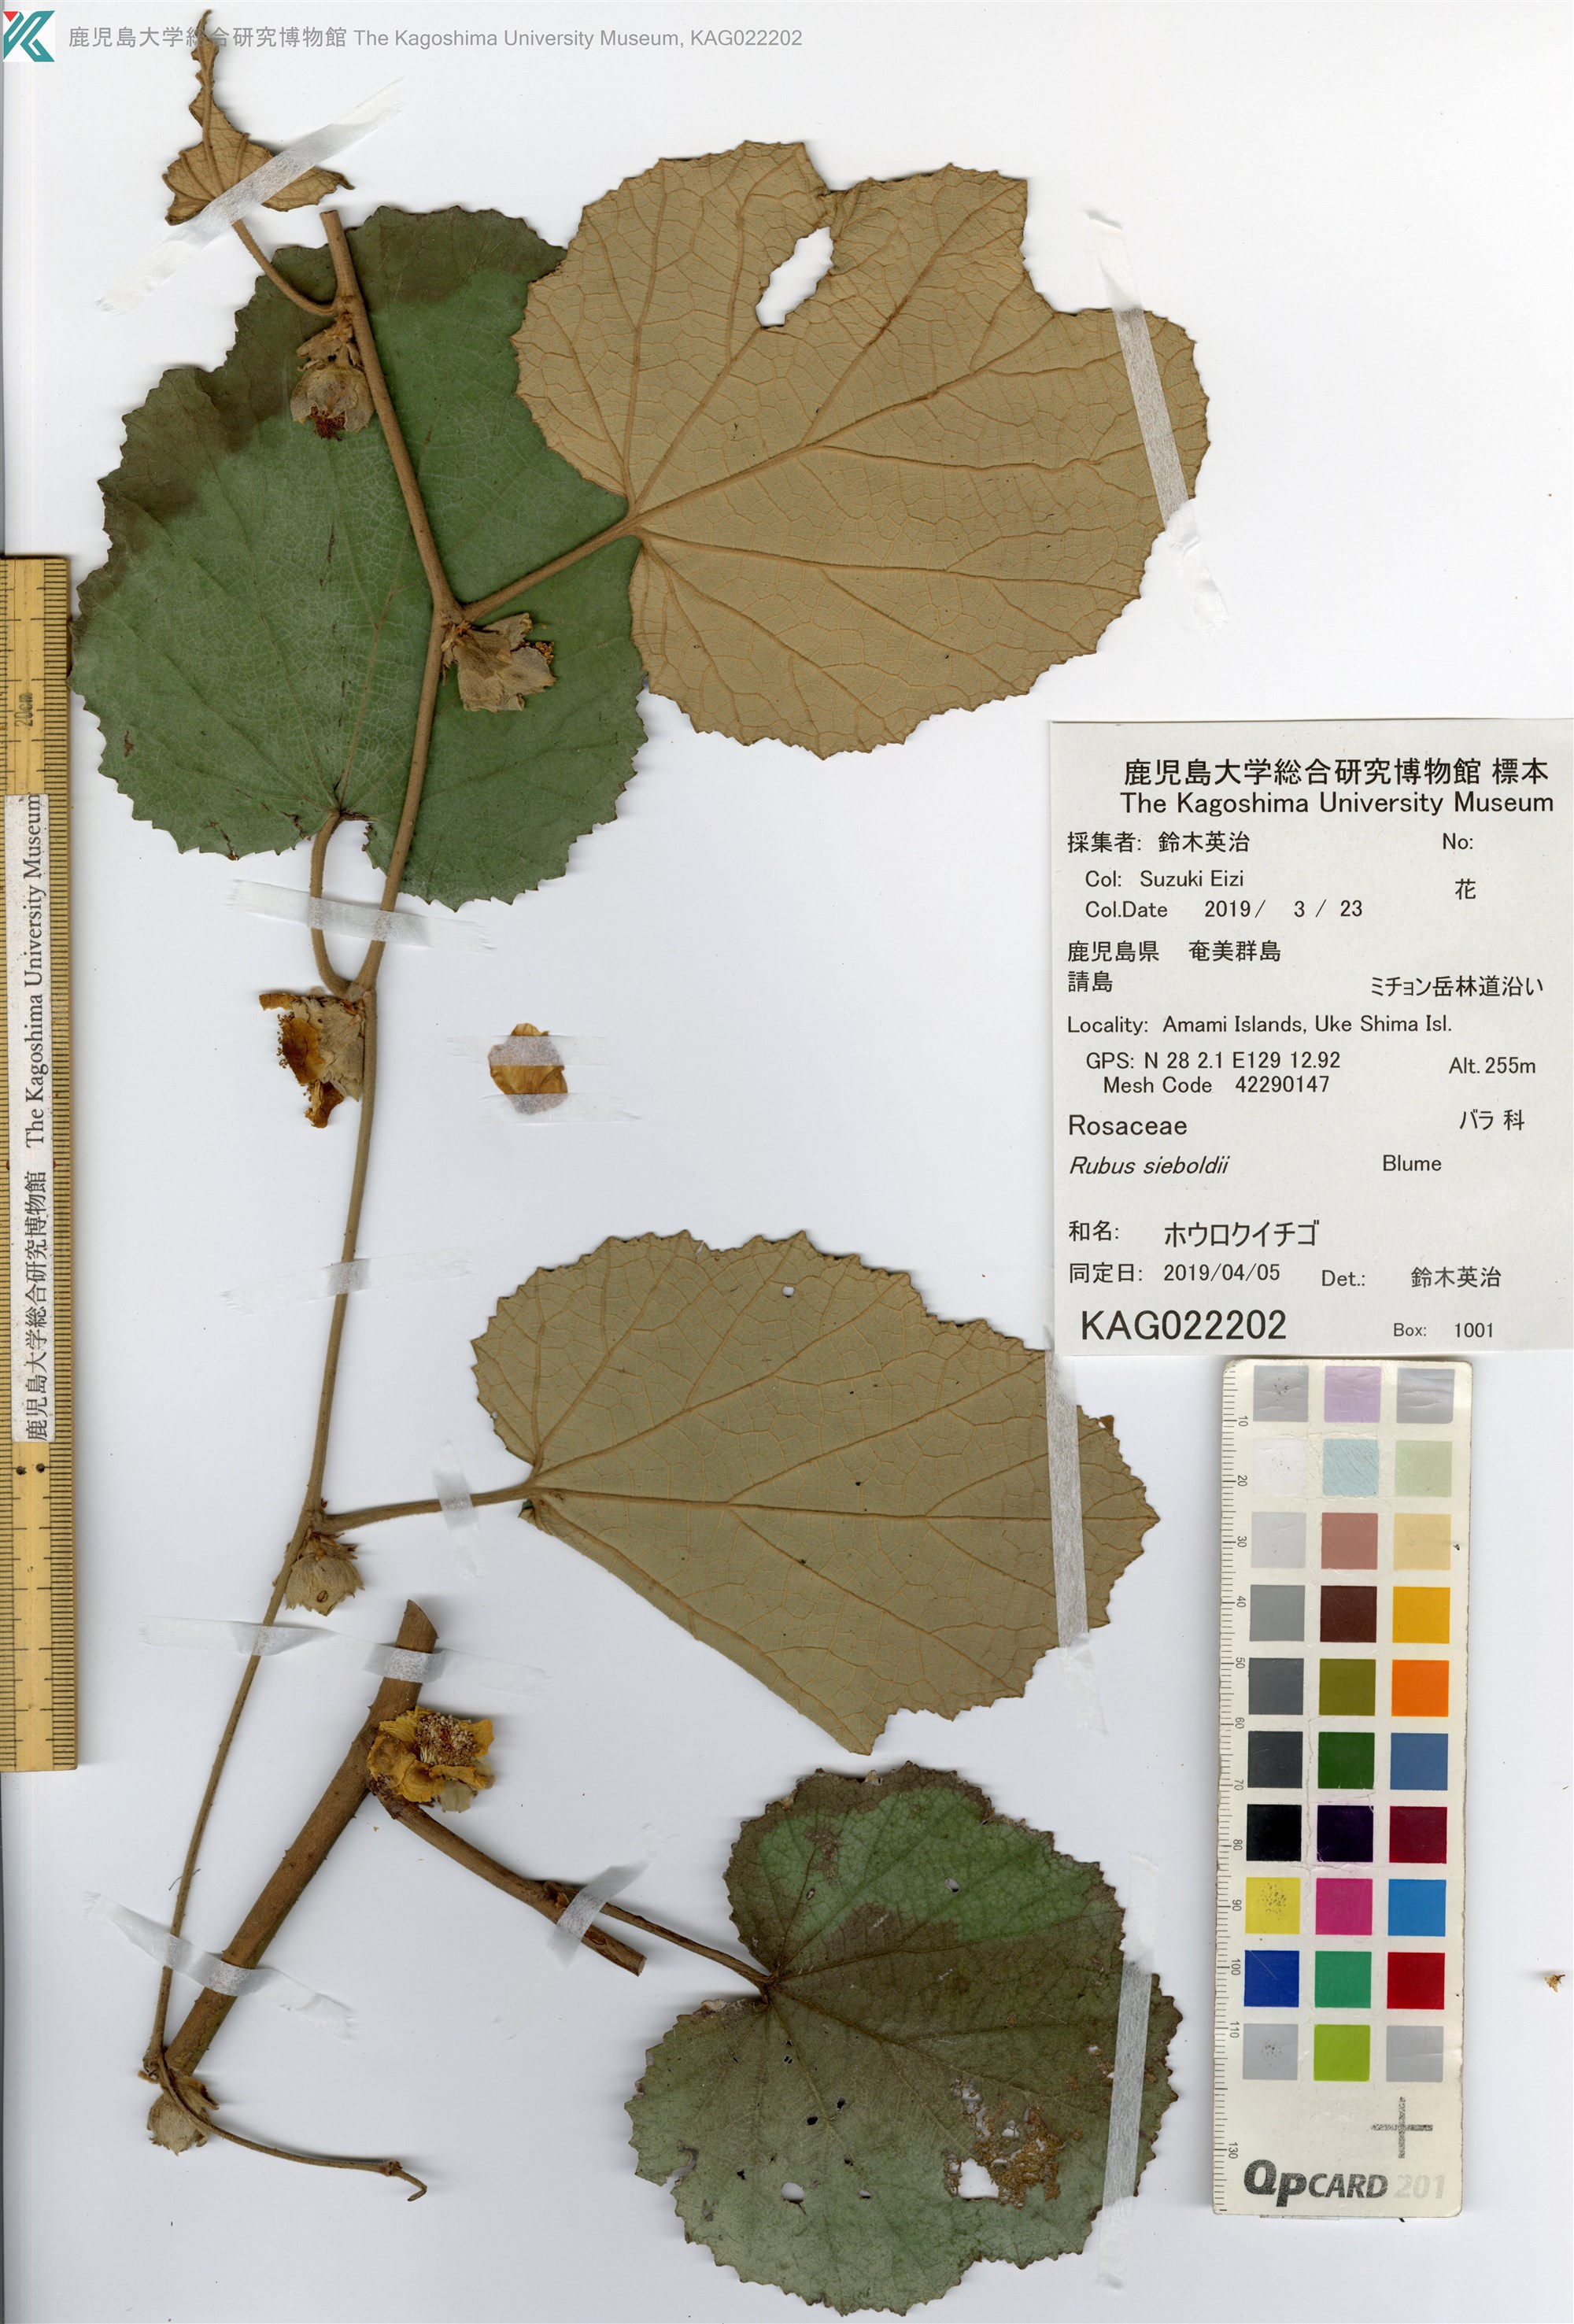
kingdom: Plantae
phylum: Tracheophyta
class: Magnoliopsida
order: Rosales
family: Rosaceae
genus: Rubus
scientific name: Rubus sieboldii
